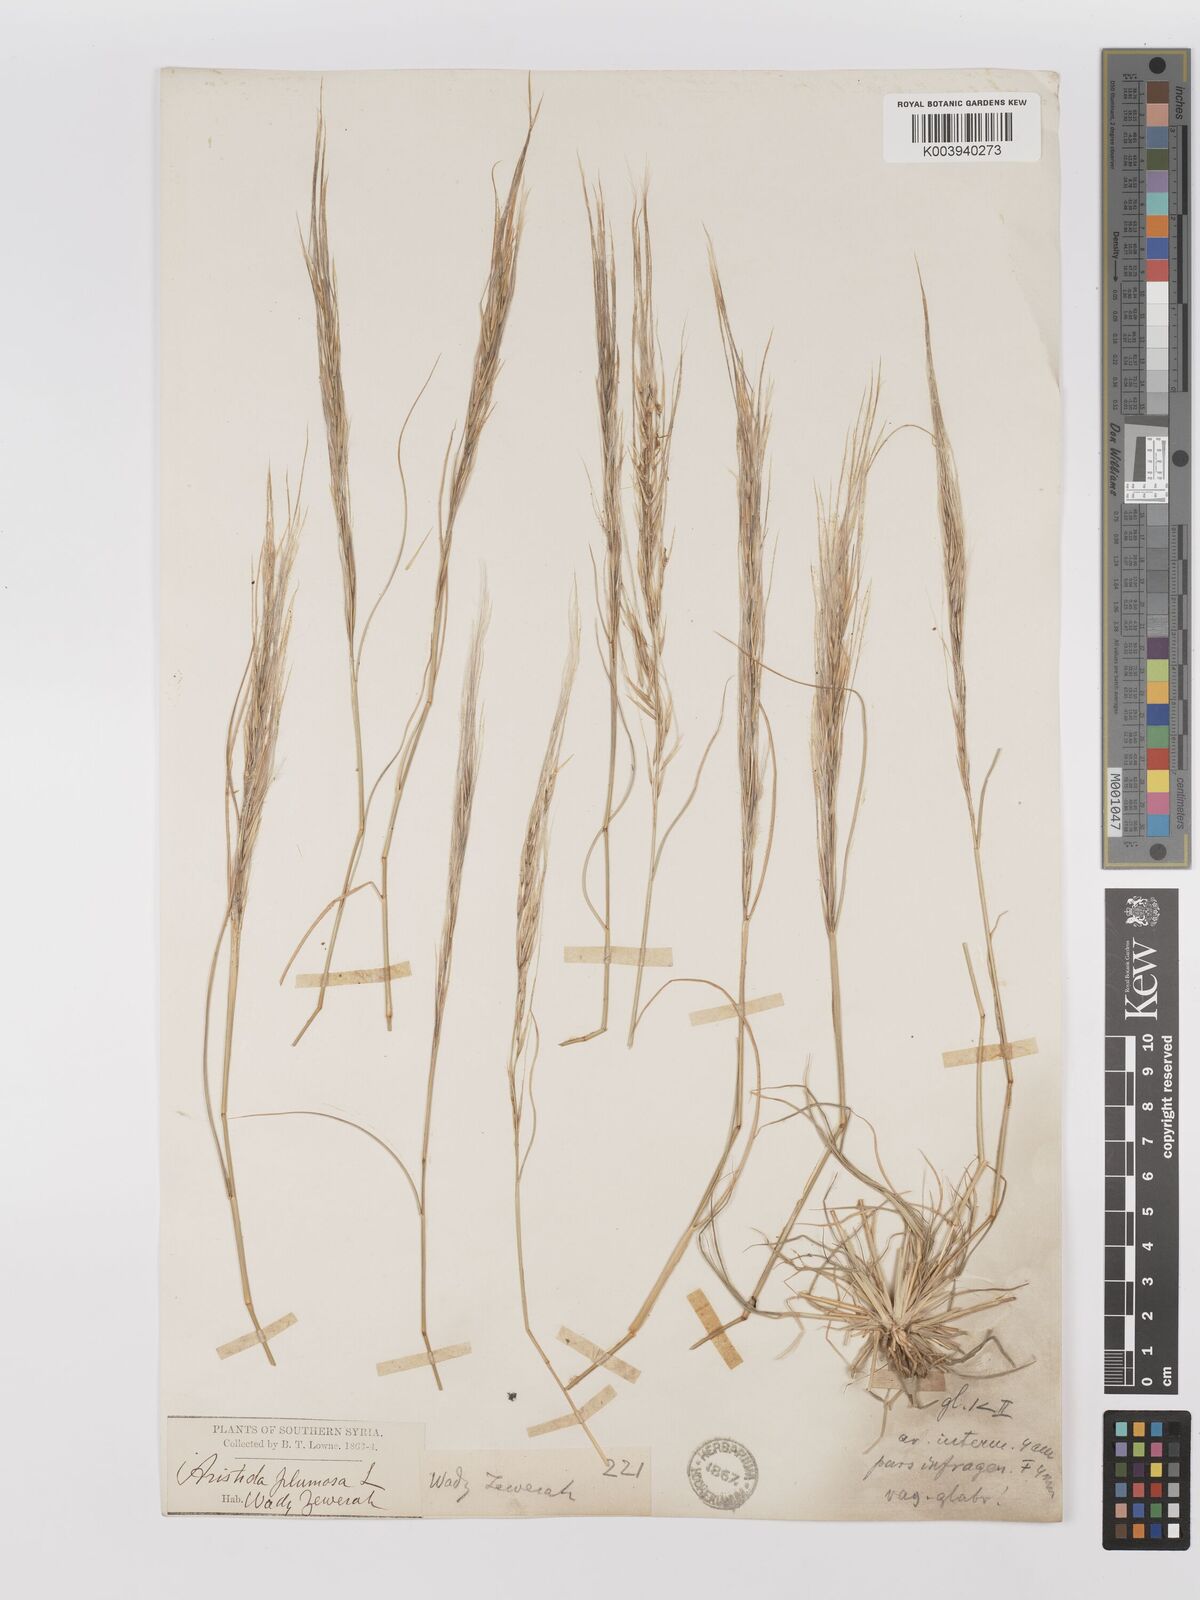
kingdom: Plantae
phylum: Tracheophyta
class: Liliopsida
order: Poales
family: Poaceae
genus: Stipagrostis
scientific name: Stipagrostis hirtigluma
